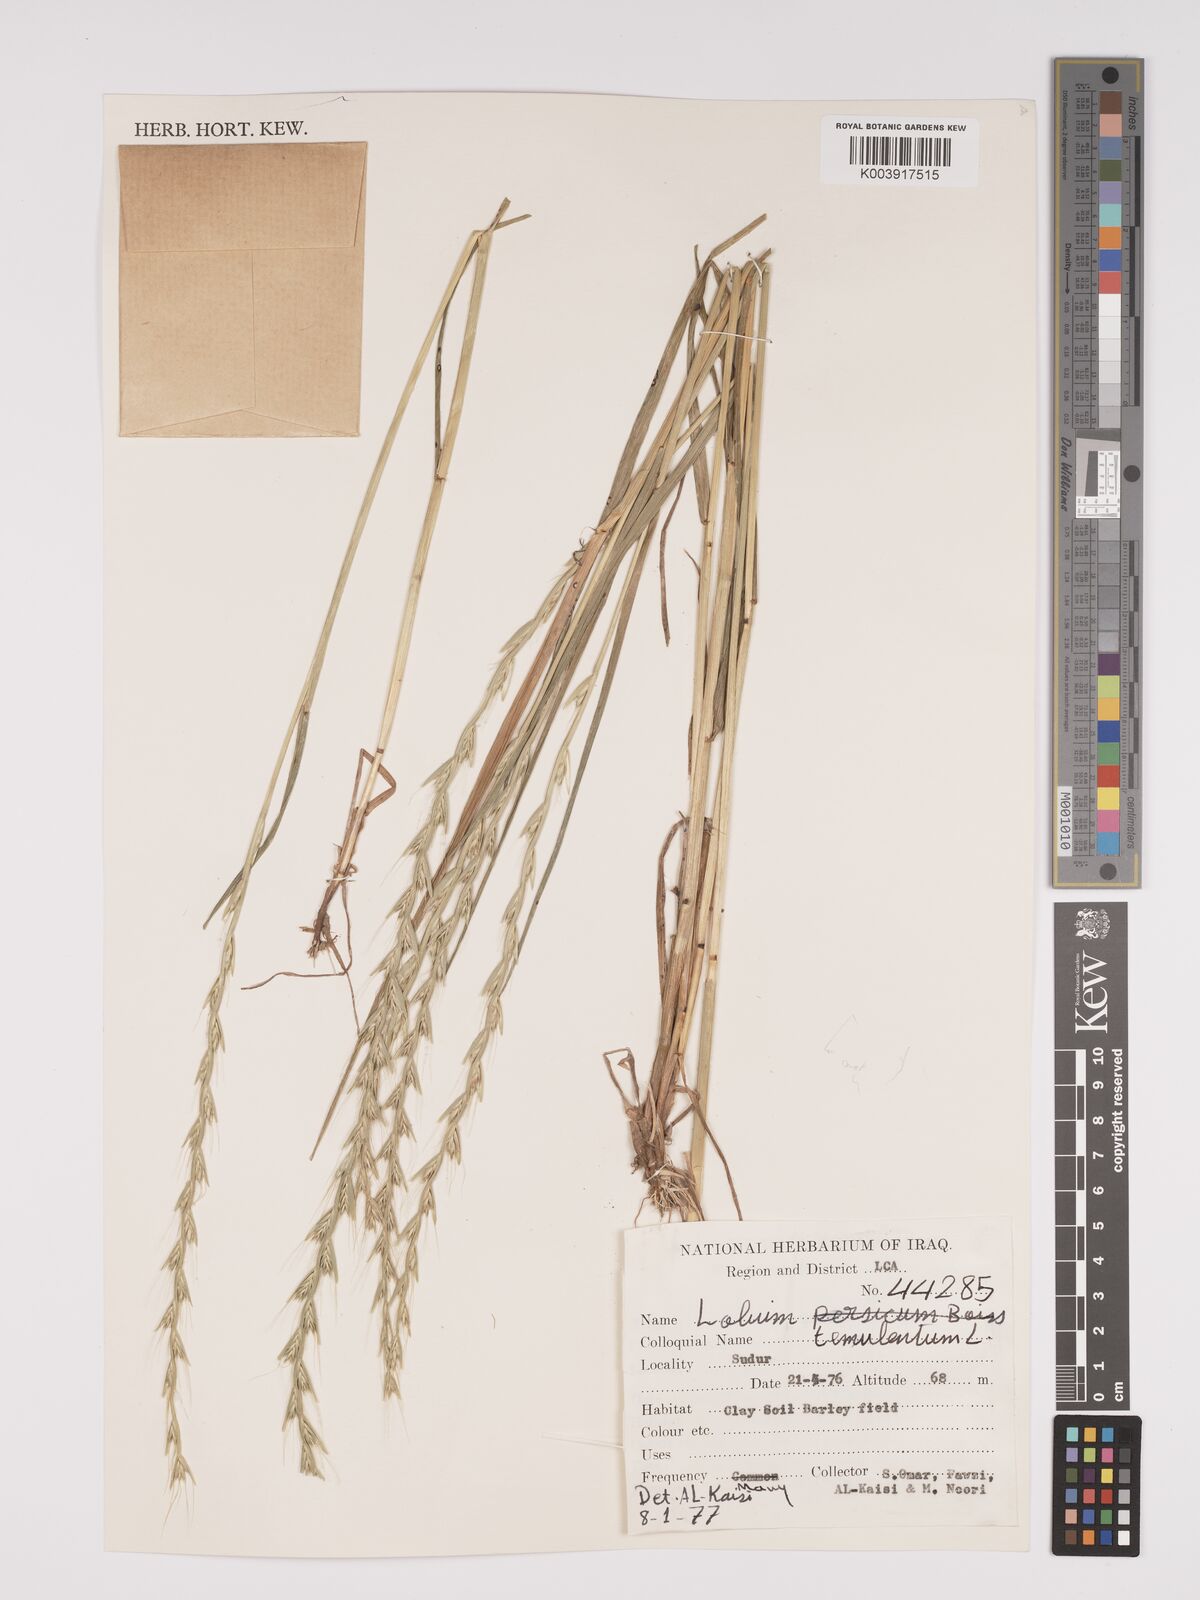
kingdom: Plantae
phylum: Tracheophyta
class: Liliopsida
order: Poales
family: Poaceae
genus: Lolium
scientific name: Lolium temulentum
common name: Darnel
